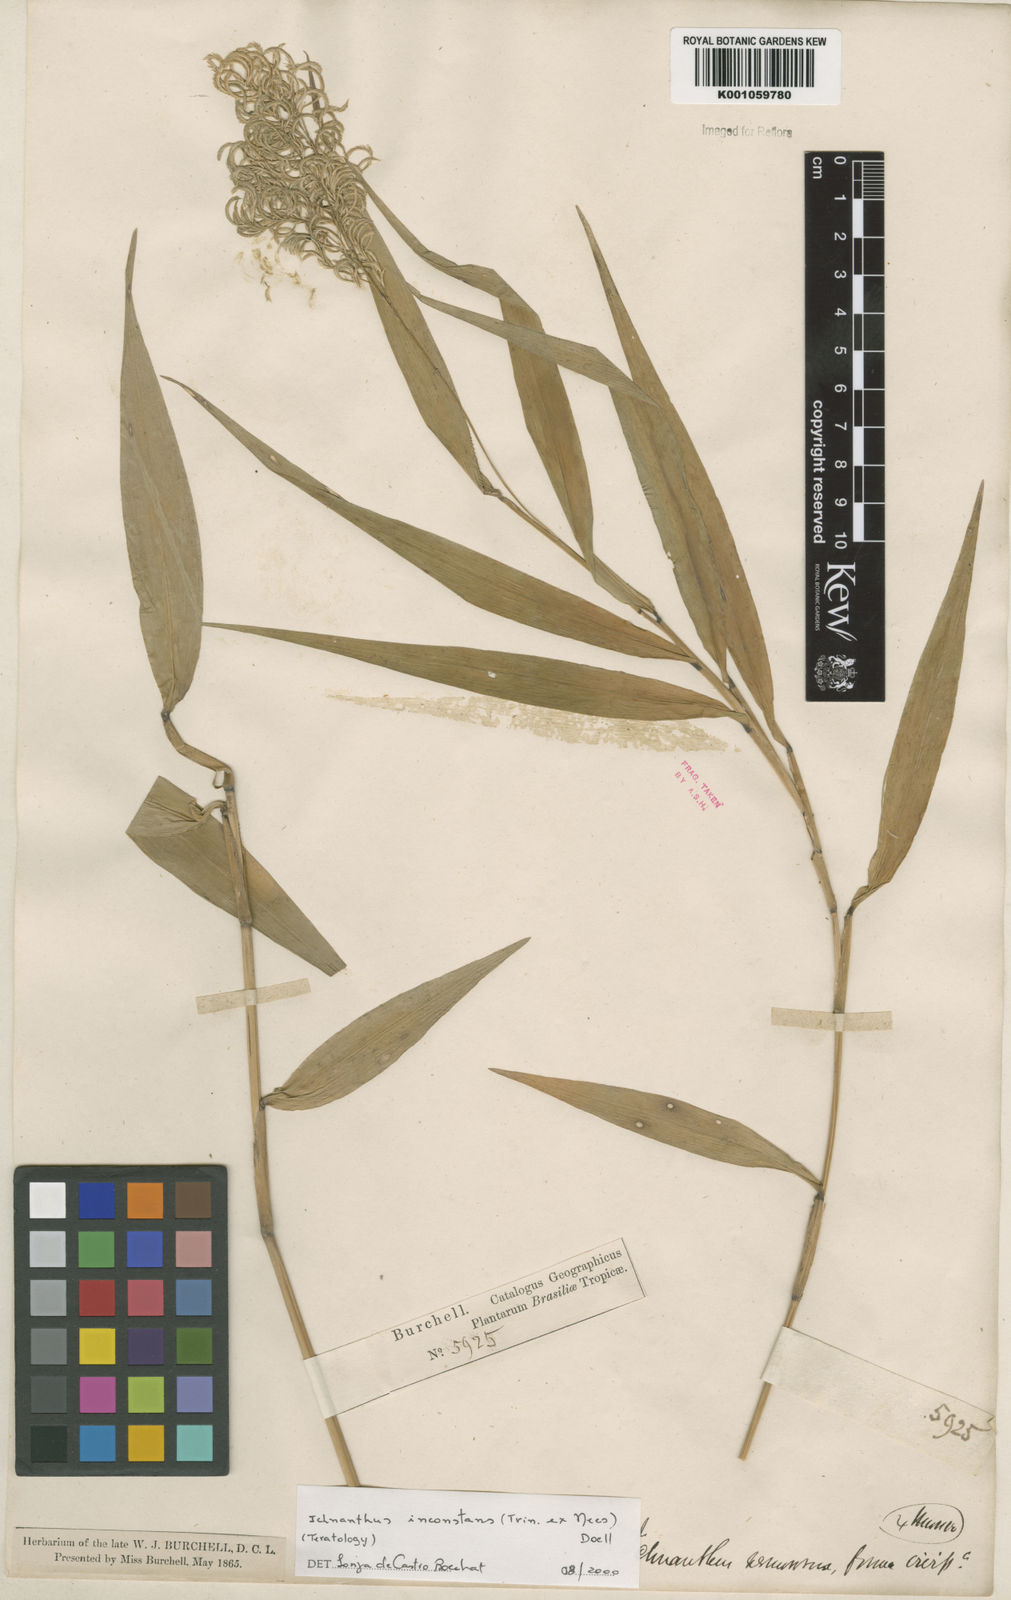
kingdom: Plantae
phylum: Tracheophyta
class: Liliopsida
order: Poales
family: Poaceae
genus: Ichnanthus
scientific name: Ichnanthus
